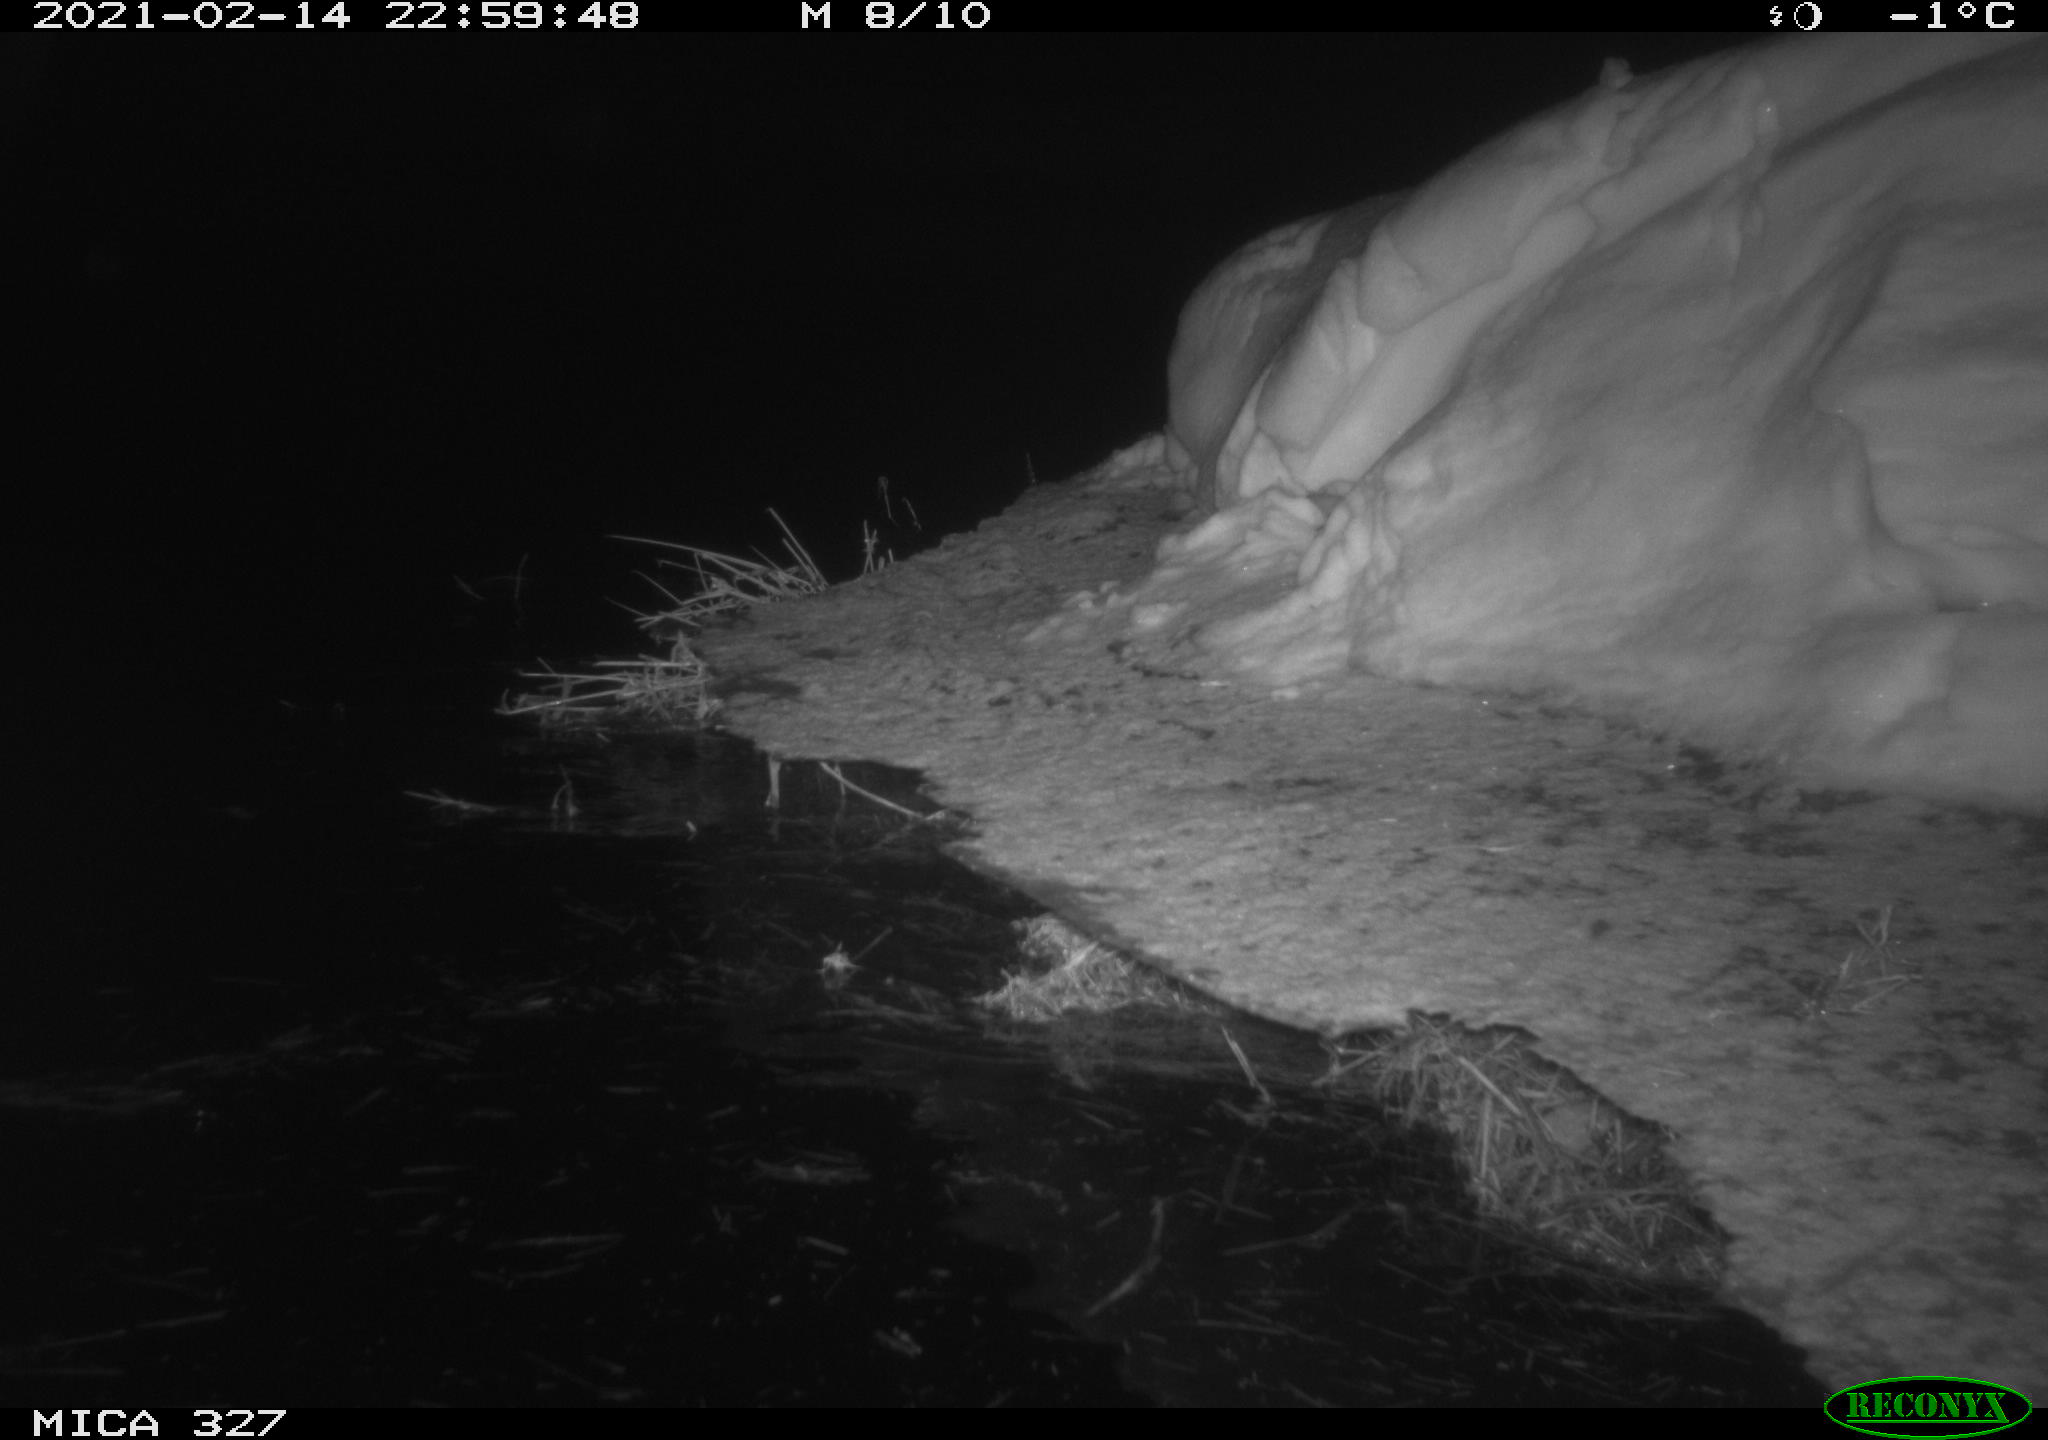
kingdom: Animalia
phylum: Chordata
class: Aves
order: Anseriformes
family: Anatidae
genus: Anas
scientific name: Anas
